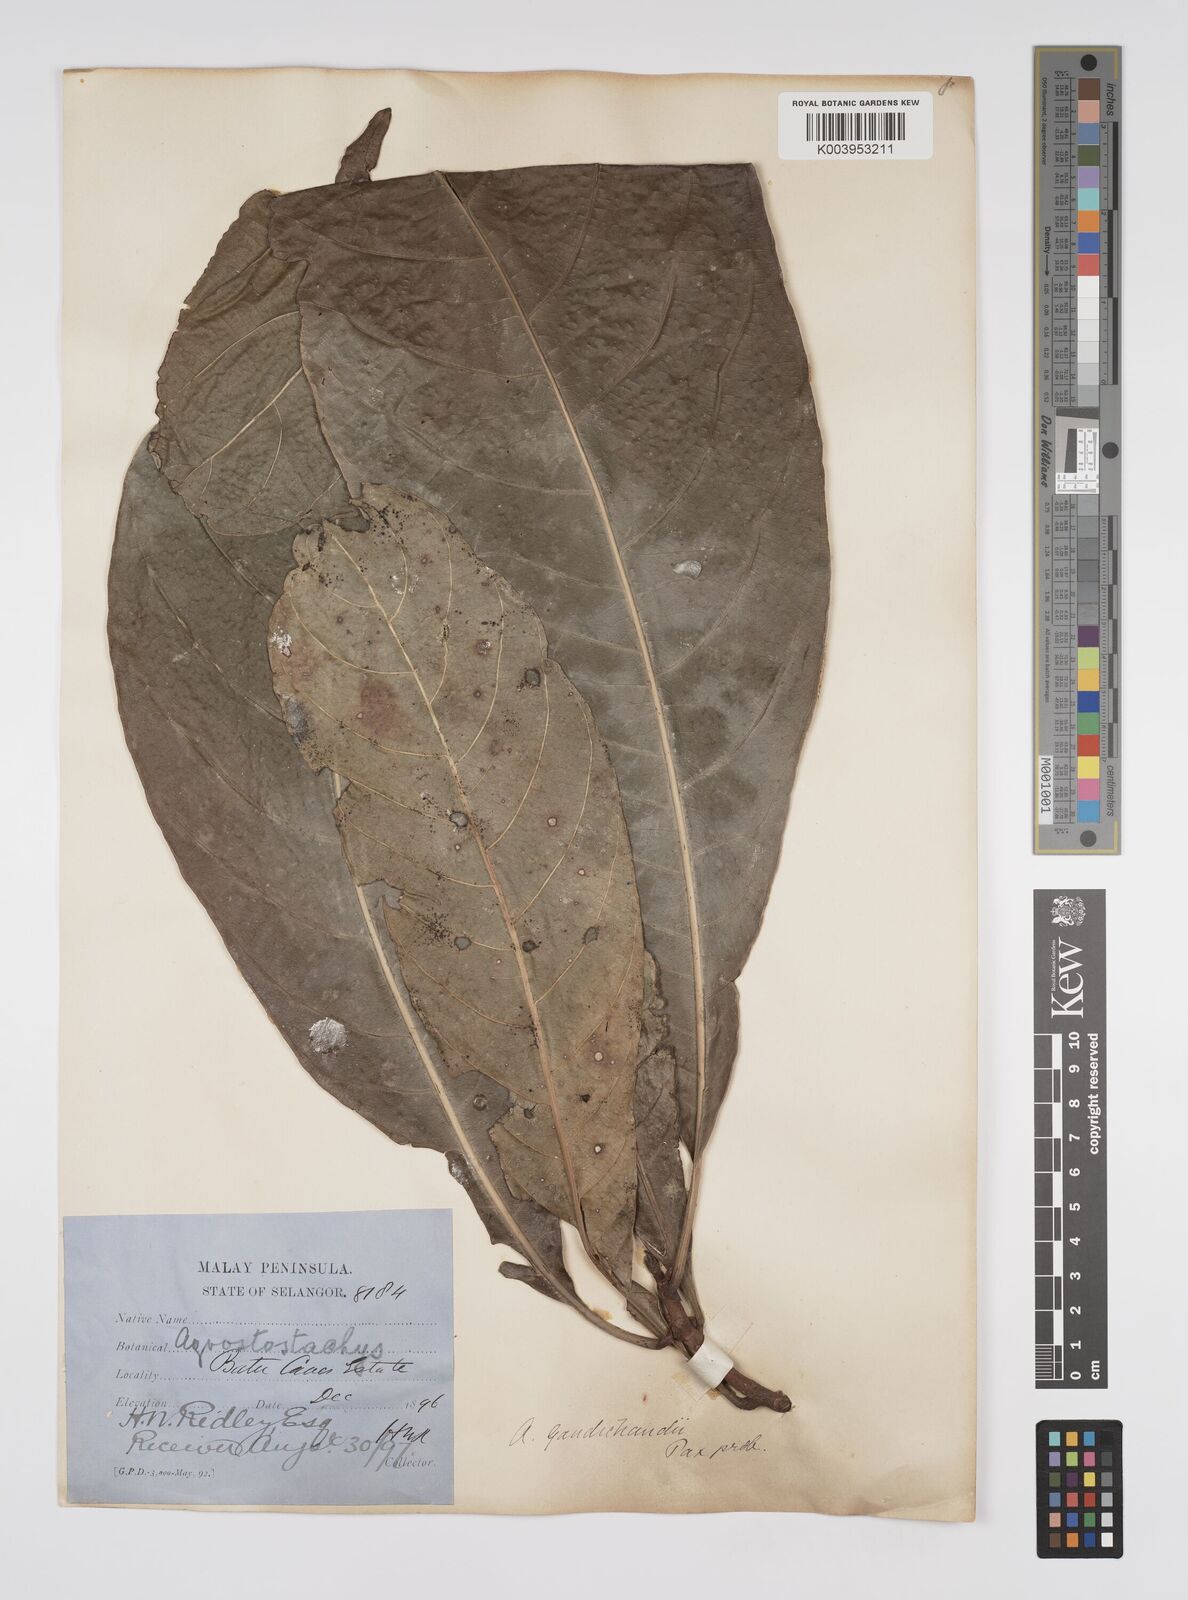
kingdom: Plantae
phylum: Tracheophyta
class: Magnoliopsida
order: Malpighiales
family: Euphorbiaceae
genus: Agrostistachys
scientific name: Agrostistachys gaudichaudii
